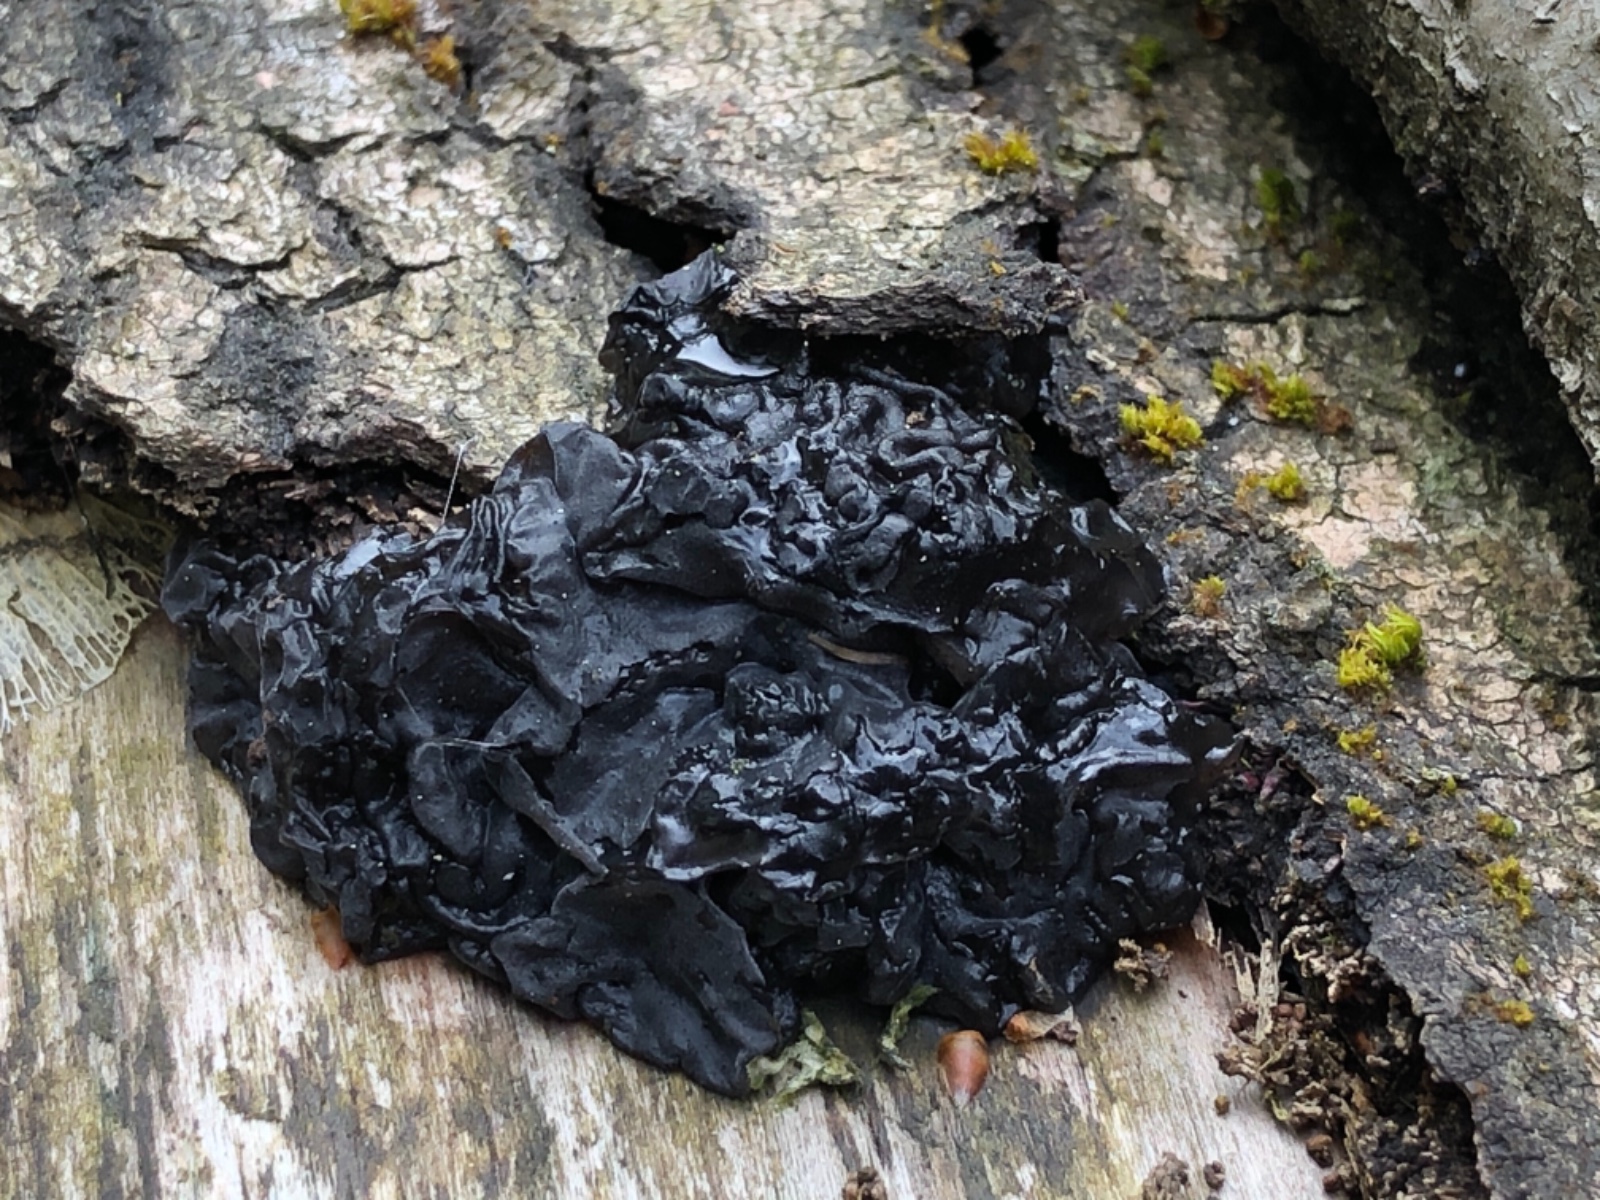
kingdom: Fungi
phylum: Basidiomycota
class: Agaricomycetes
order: Auriculariales
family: Auriculariaceae
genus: Exidia
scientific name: Exidia nigricans
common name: almindelig bævretop
